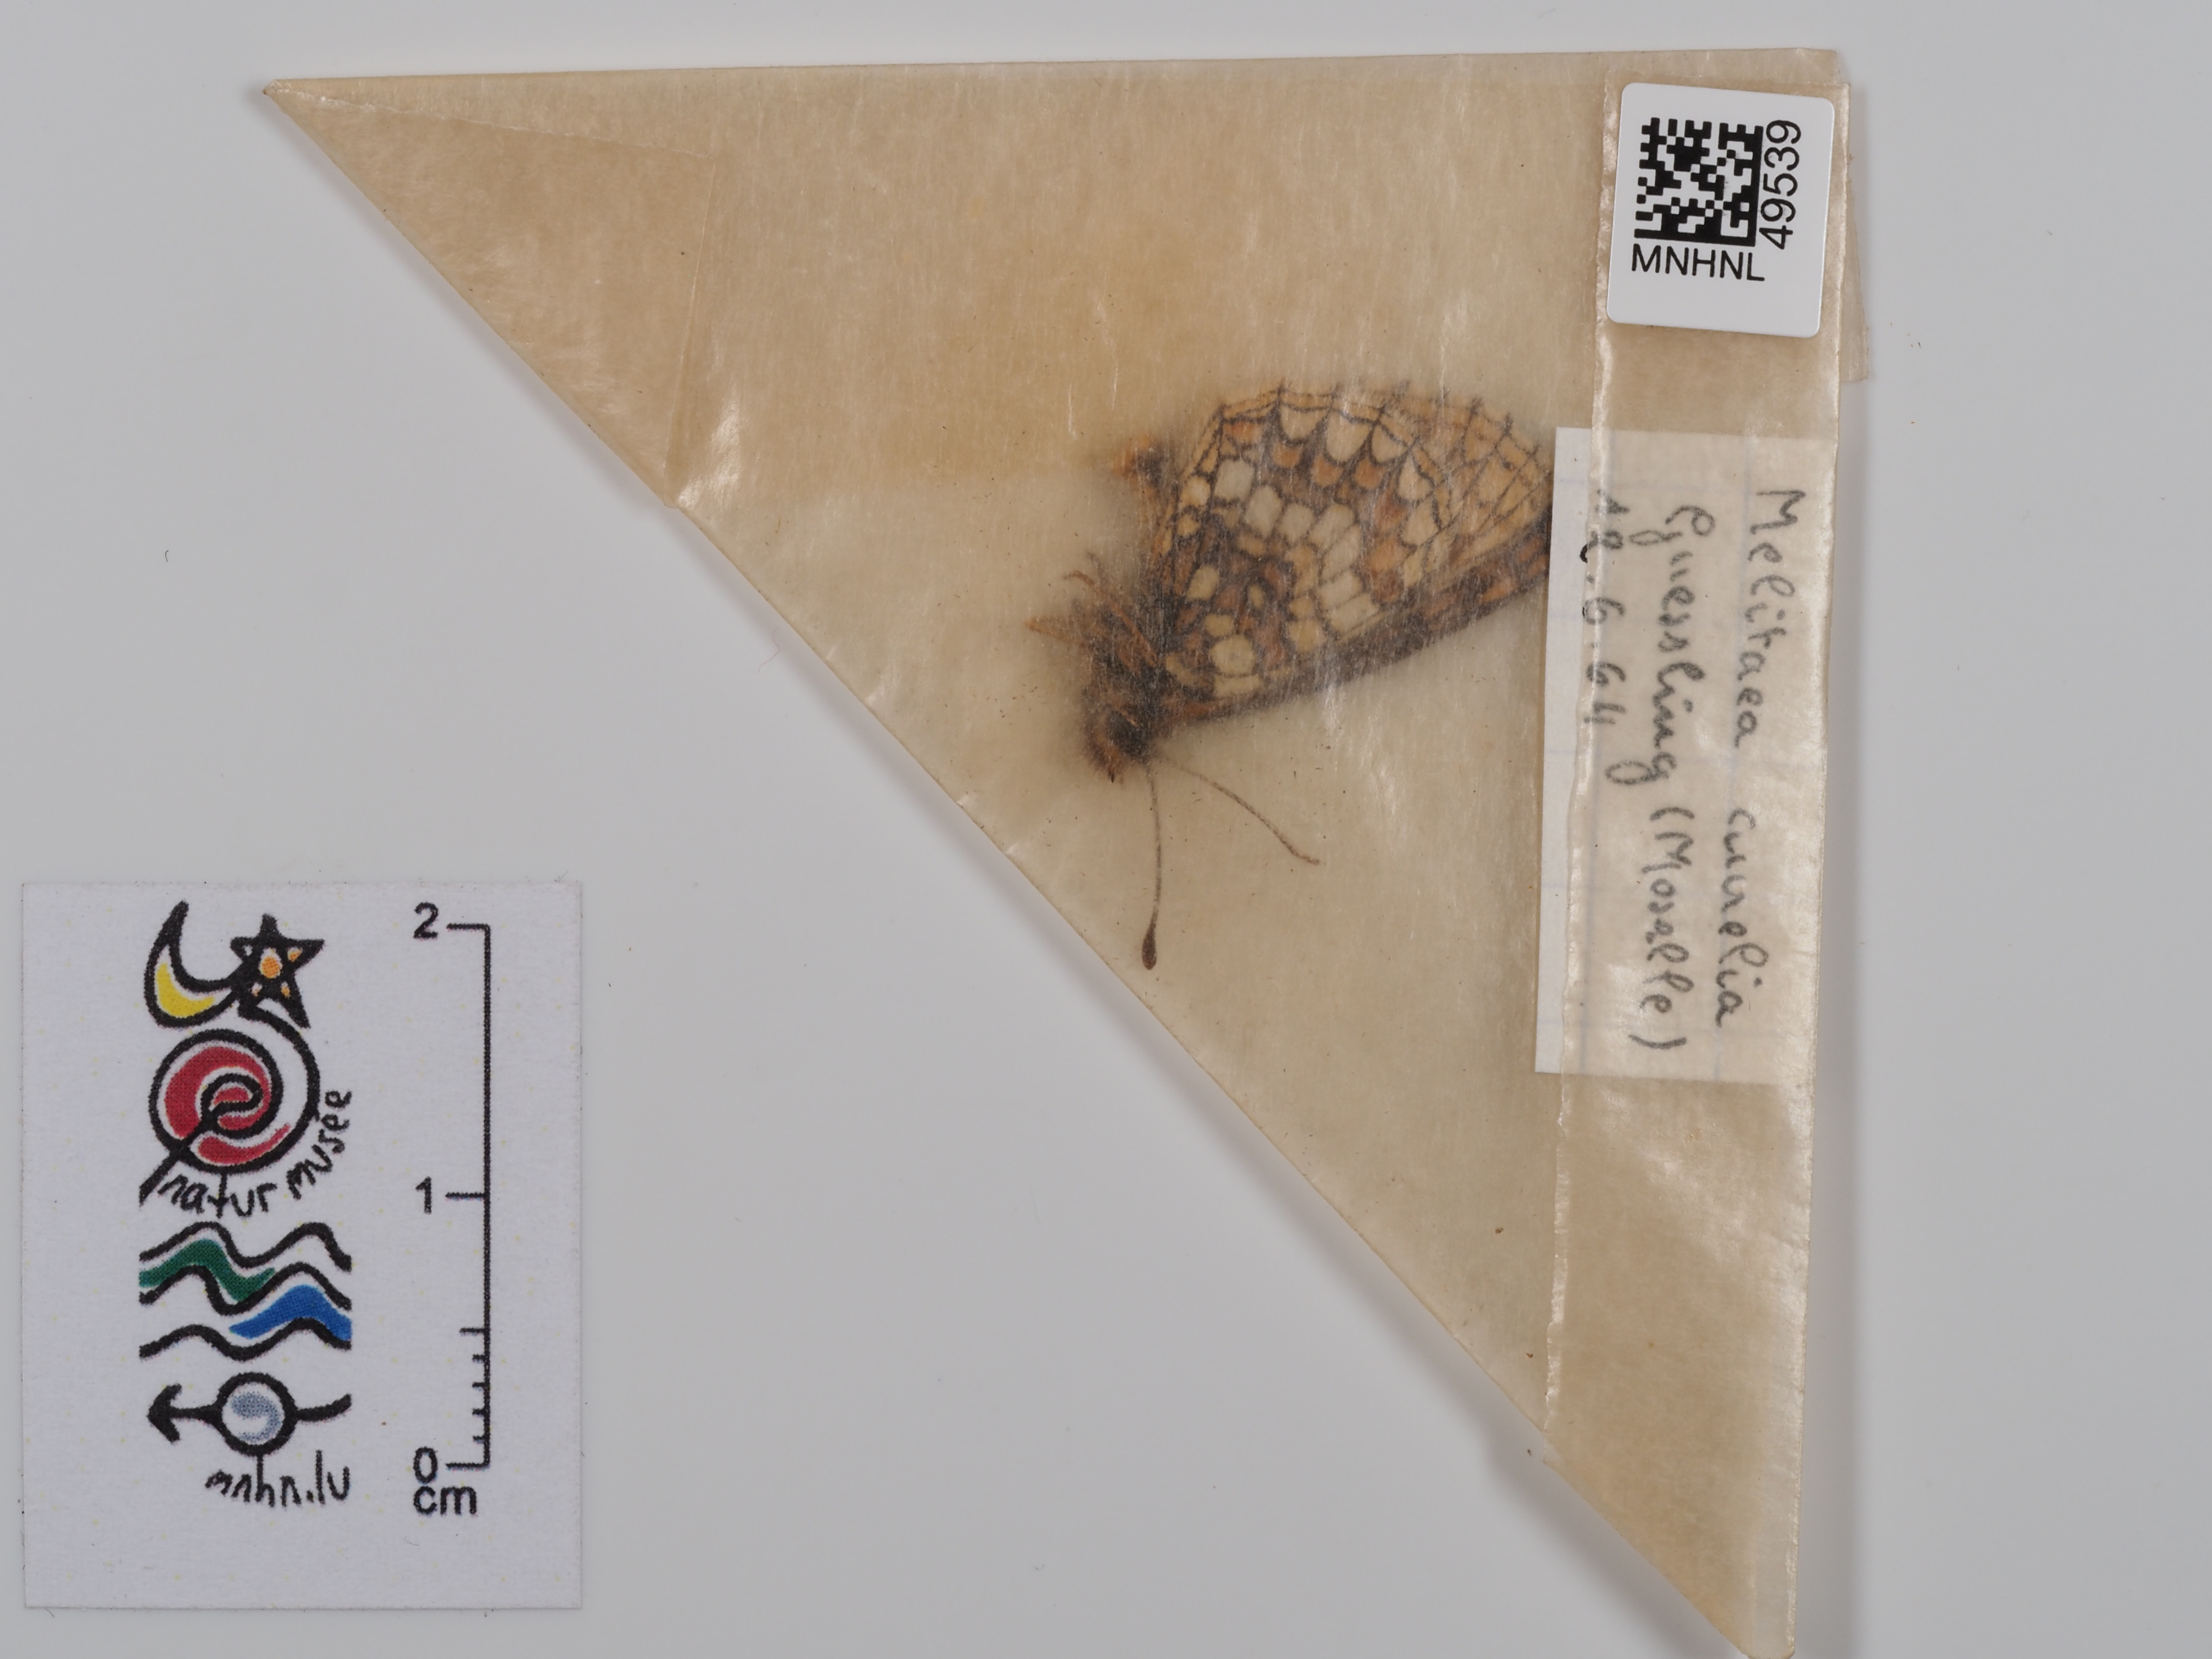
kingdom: Animalia
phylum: Arthropoda
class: Insecta
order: Lepidoptera
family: Nymphalidae
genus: Mellicta
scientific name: Mellicta aurelia
